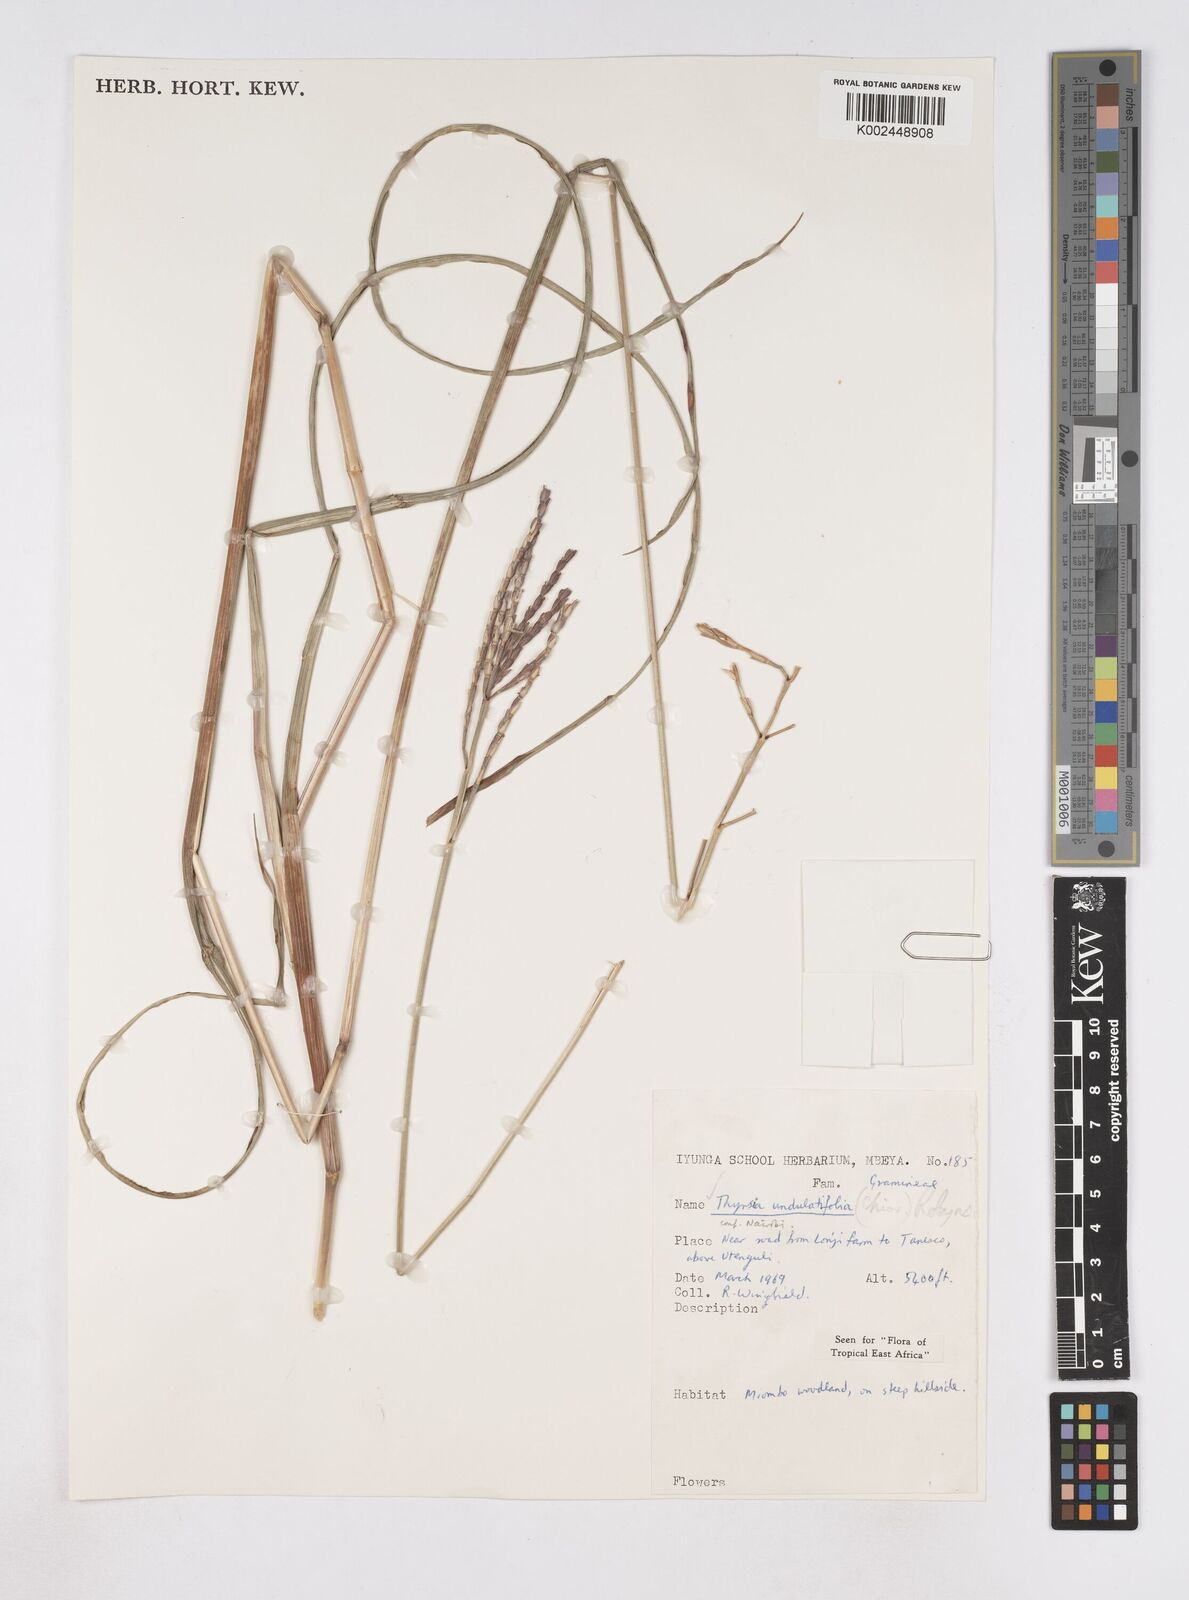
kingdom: Plantae
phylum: Tracheophyta
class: Liliopsida
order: Poales
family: Poaceae
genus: Thyrsia
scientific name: Thyrsia huillensis
